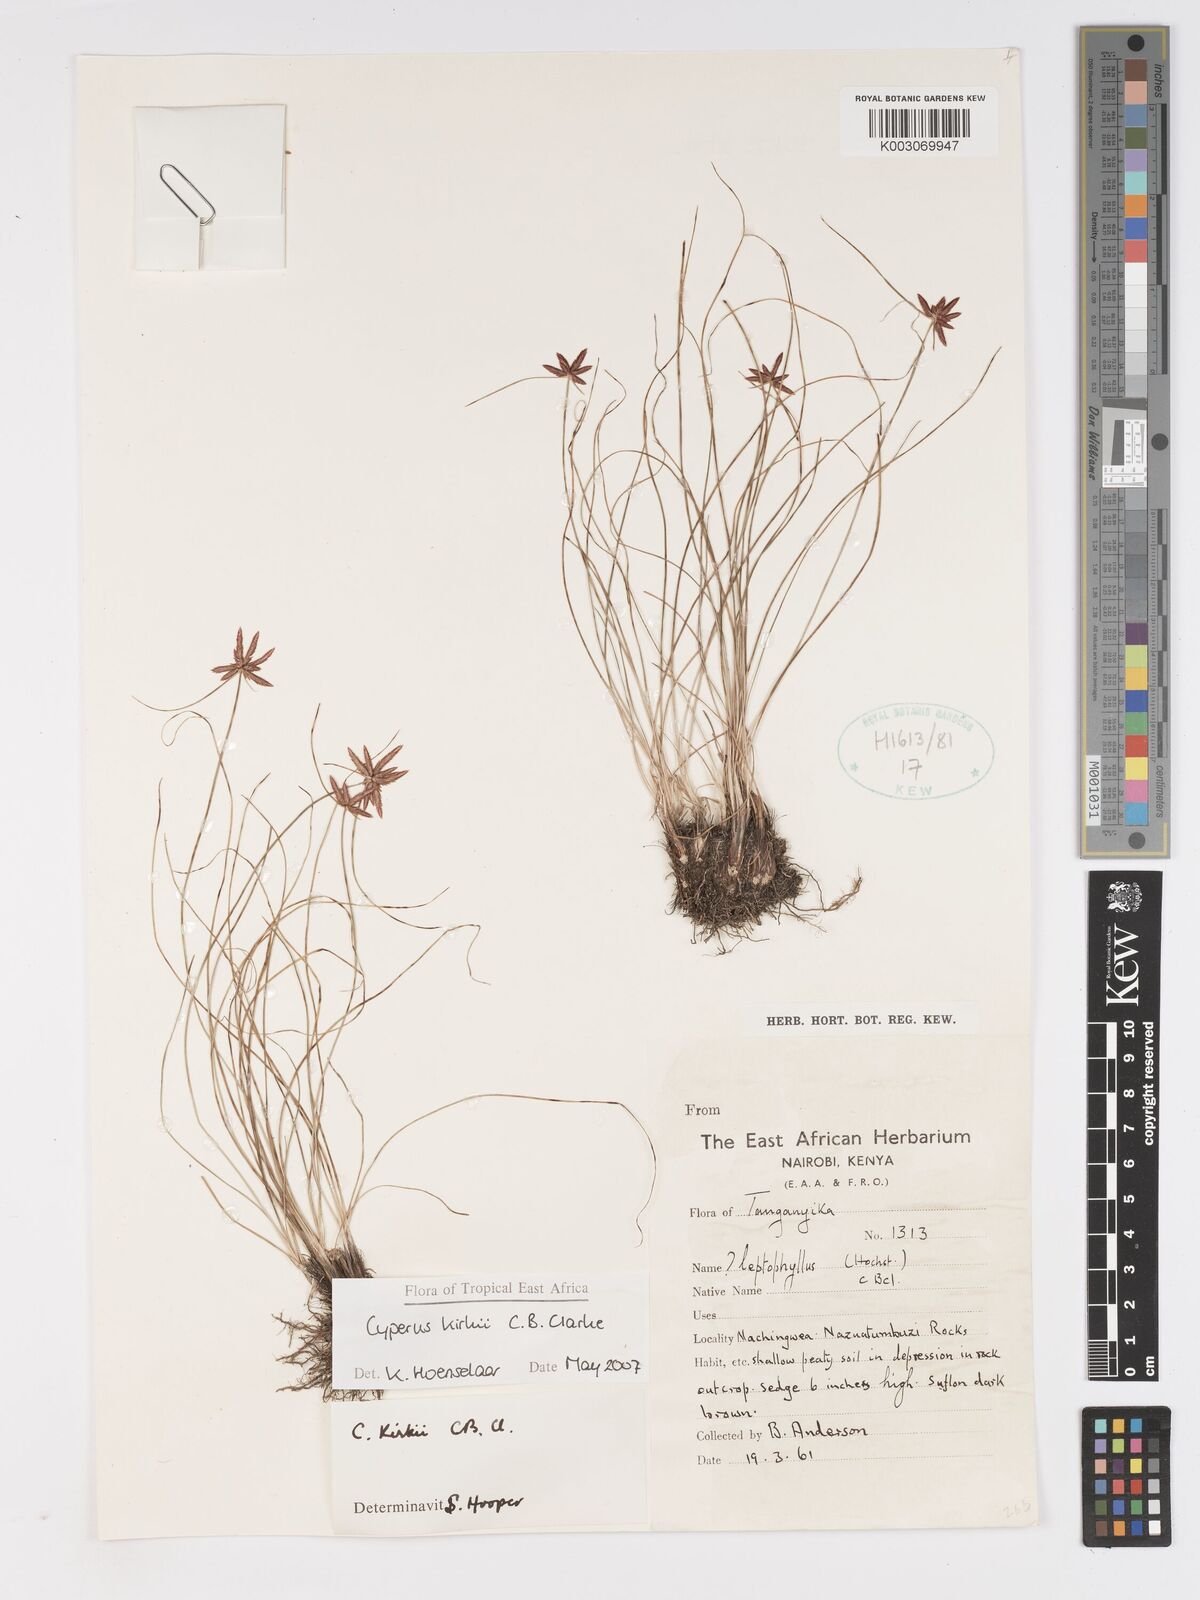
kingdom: Plantae
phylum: Tracheophyta
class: Liliopsida
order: Poales
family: Cyperaceae
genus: Cyperus
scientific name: Cyperus semitrifidus
